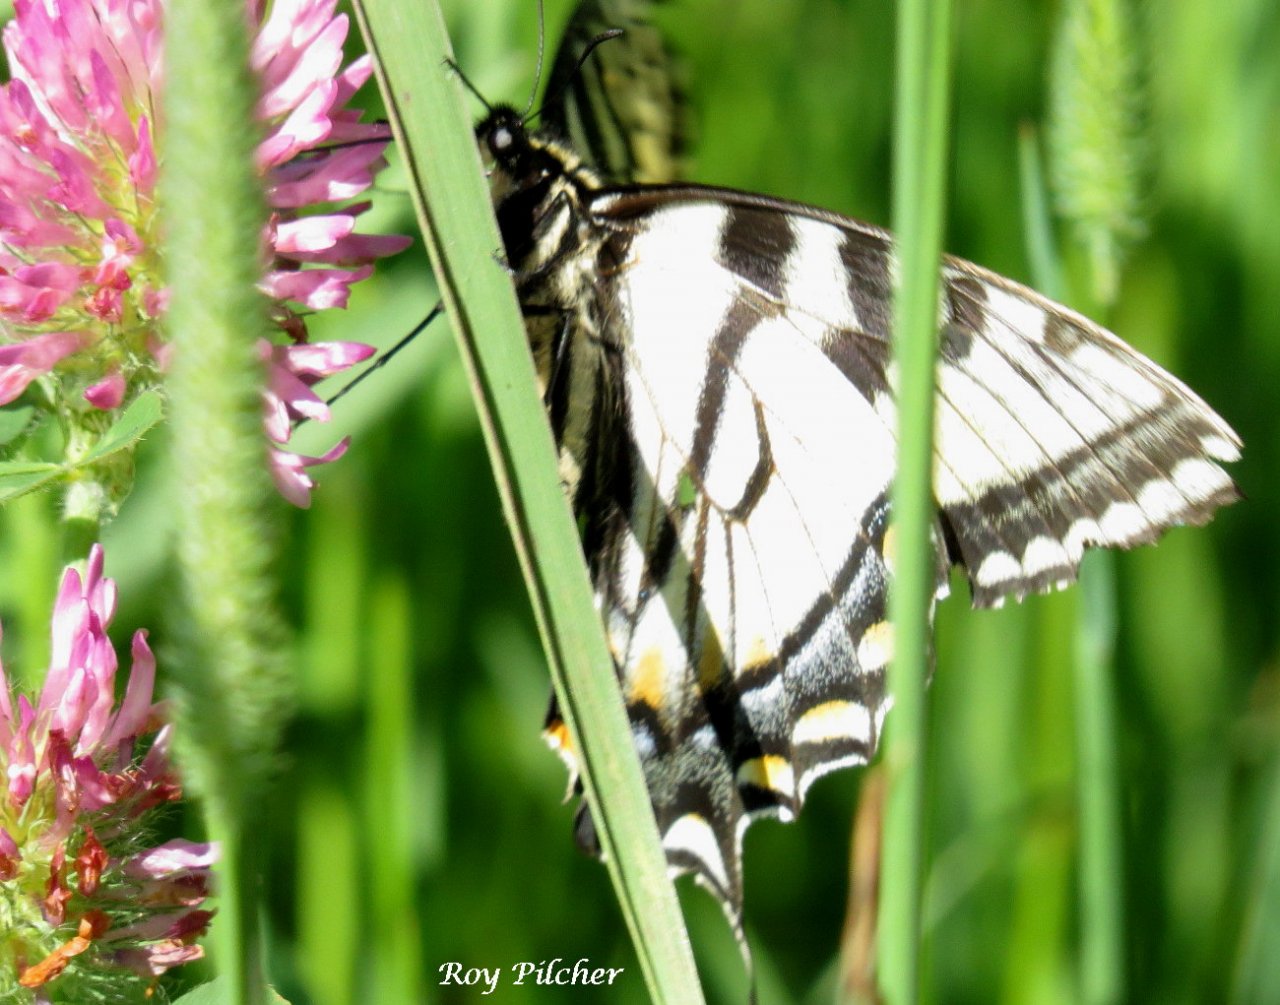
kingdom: Animalia
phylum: Arthropoda
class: Insecta
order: Lepidoptera
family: Papilionidae
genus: Pterourus
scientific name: Pterourus glaucus
